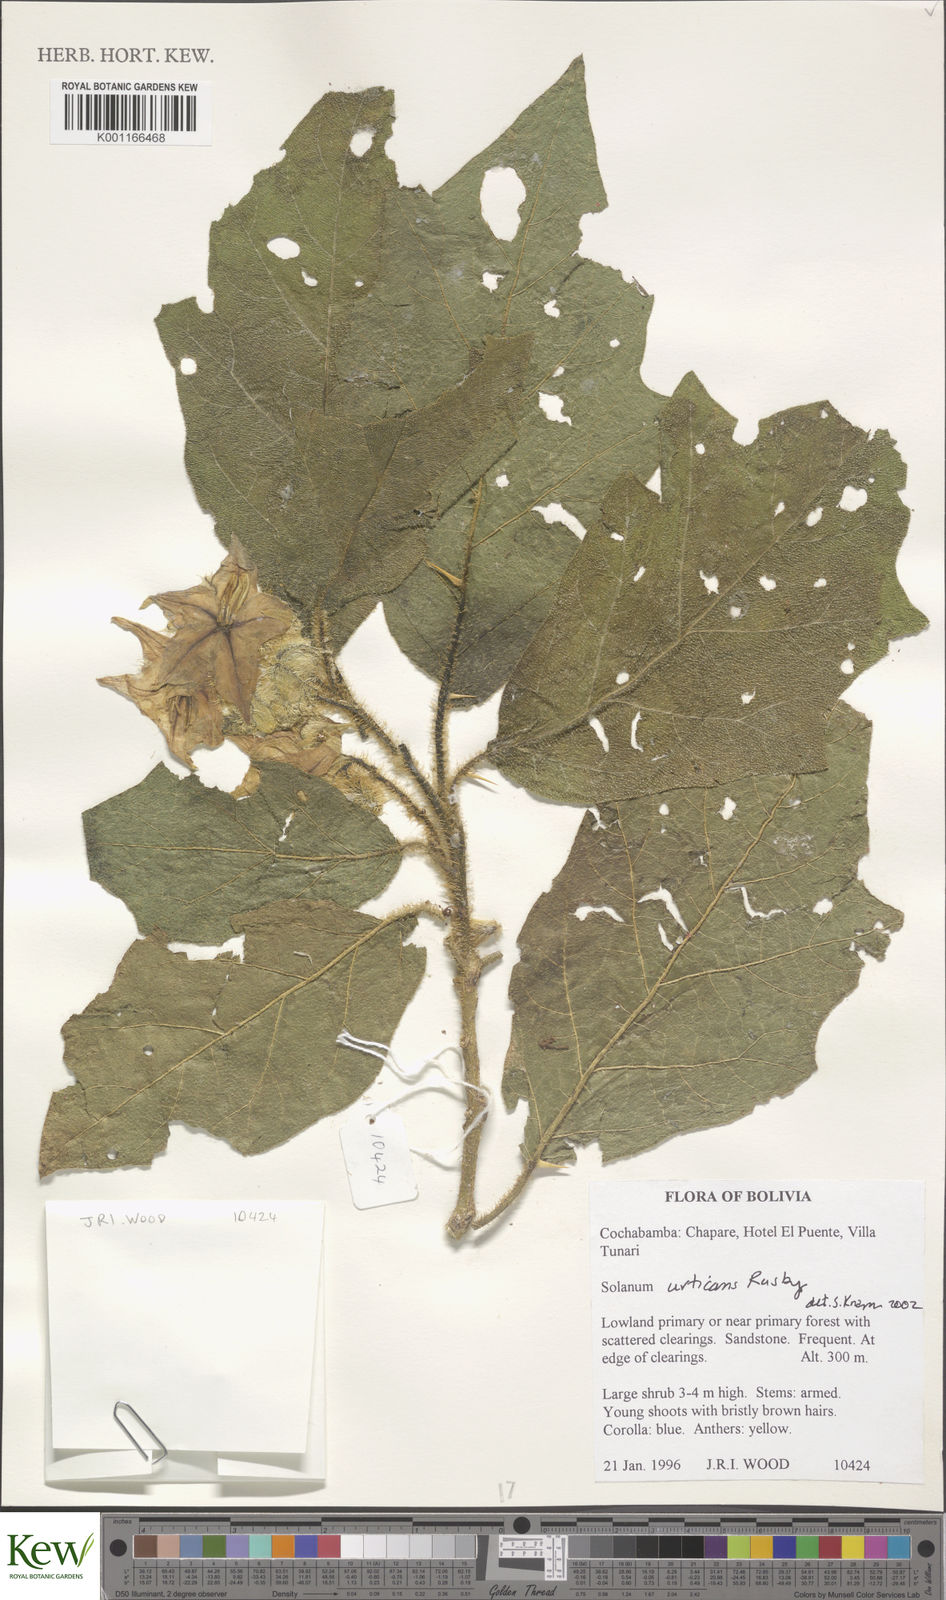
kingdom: Plantae
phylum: Tracheophyta
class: Magnoliopsida
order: Solanales
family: Solanaceae
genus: Solanum
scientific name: Solanum urticans
